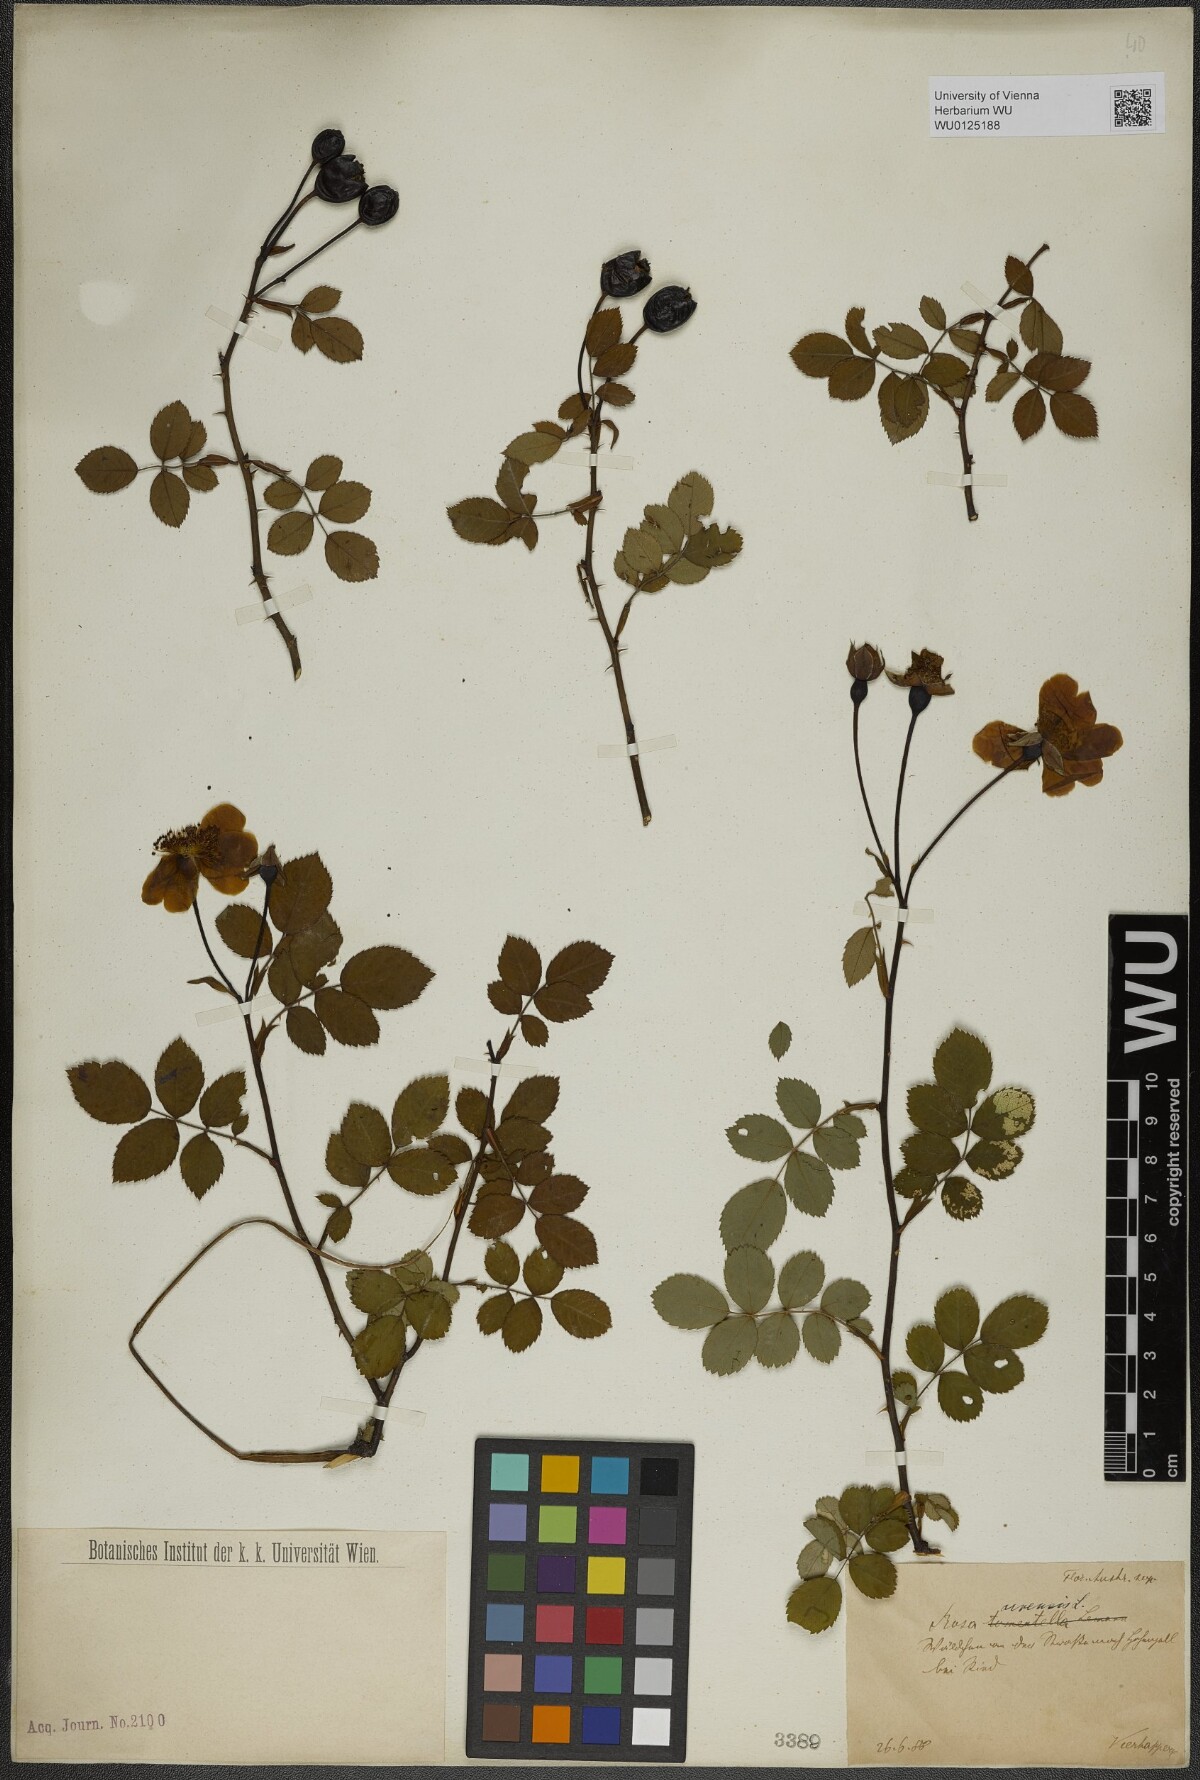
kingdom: Plantae
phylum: Tracheophyta
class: Magnoliopsida
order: Rosales
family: Rosaceae
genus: Rosa
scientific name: Rosa arvensis
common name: Field rose
